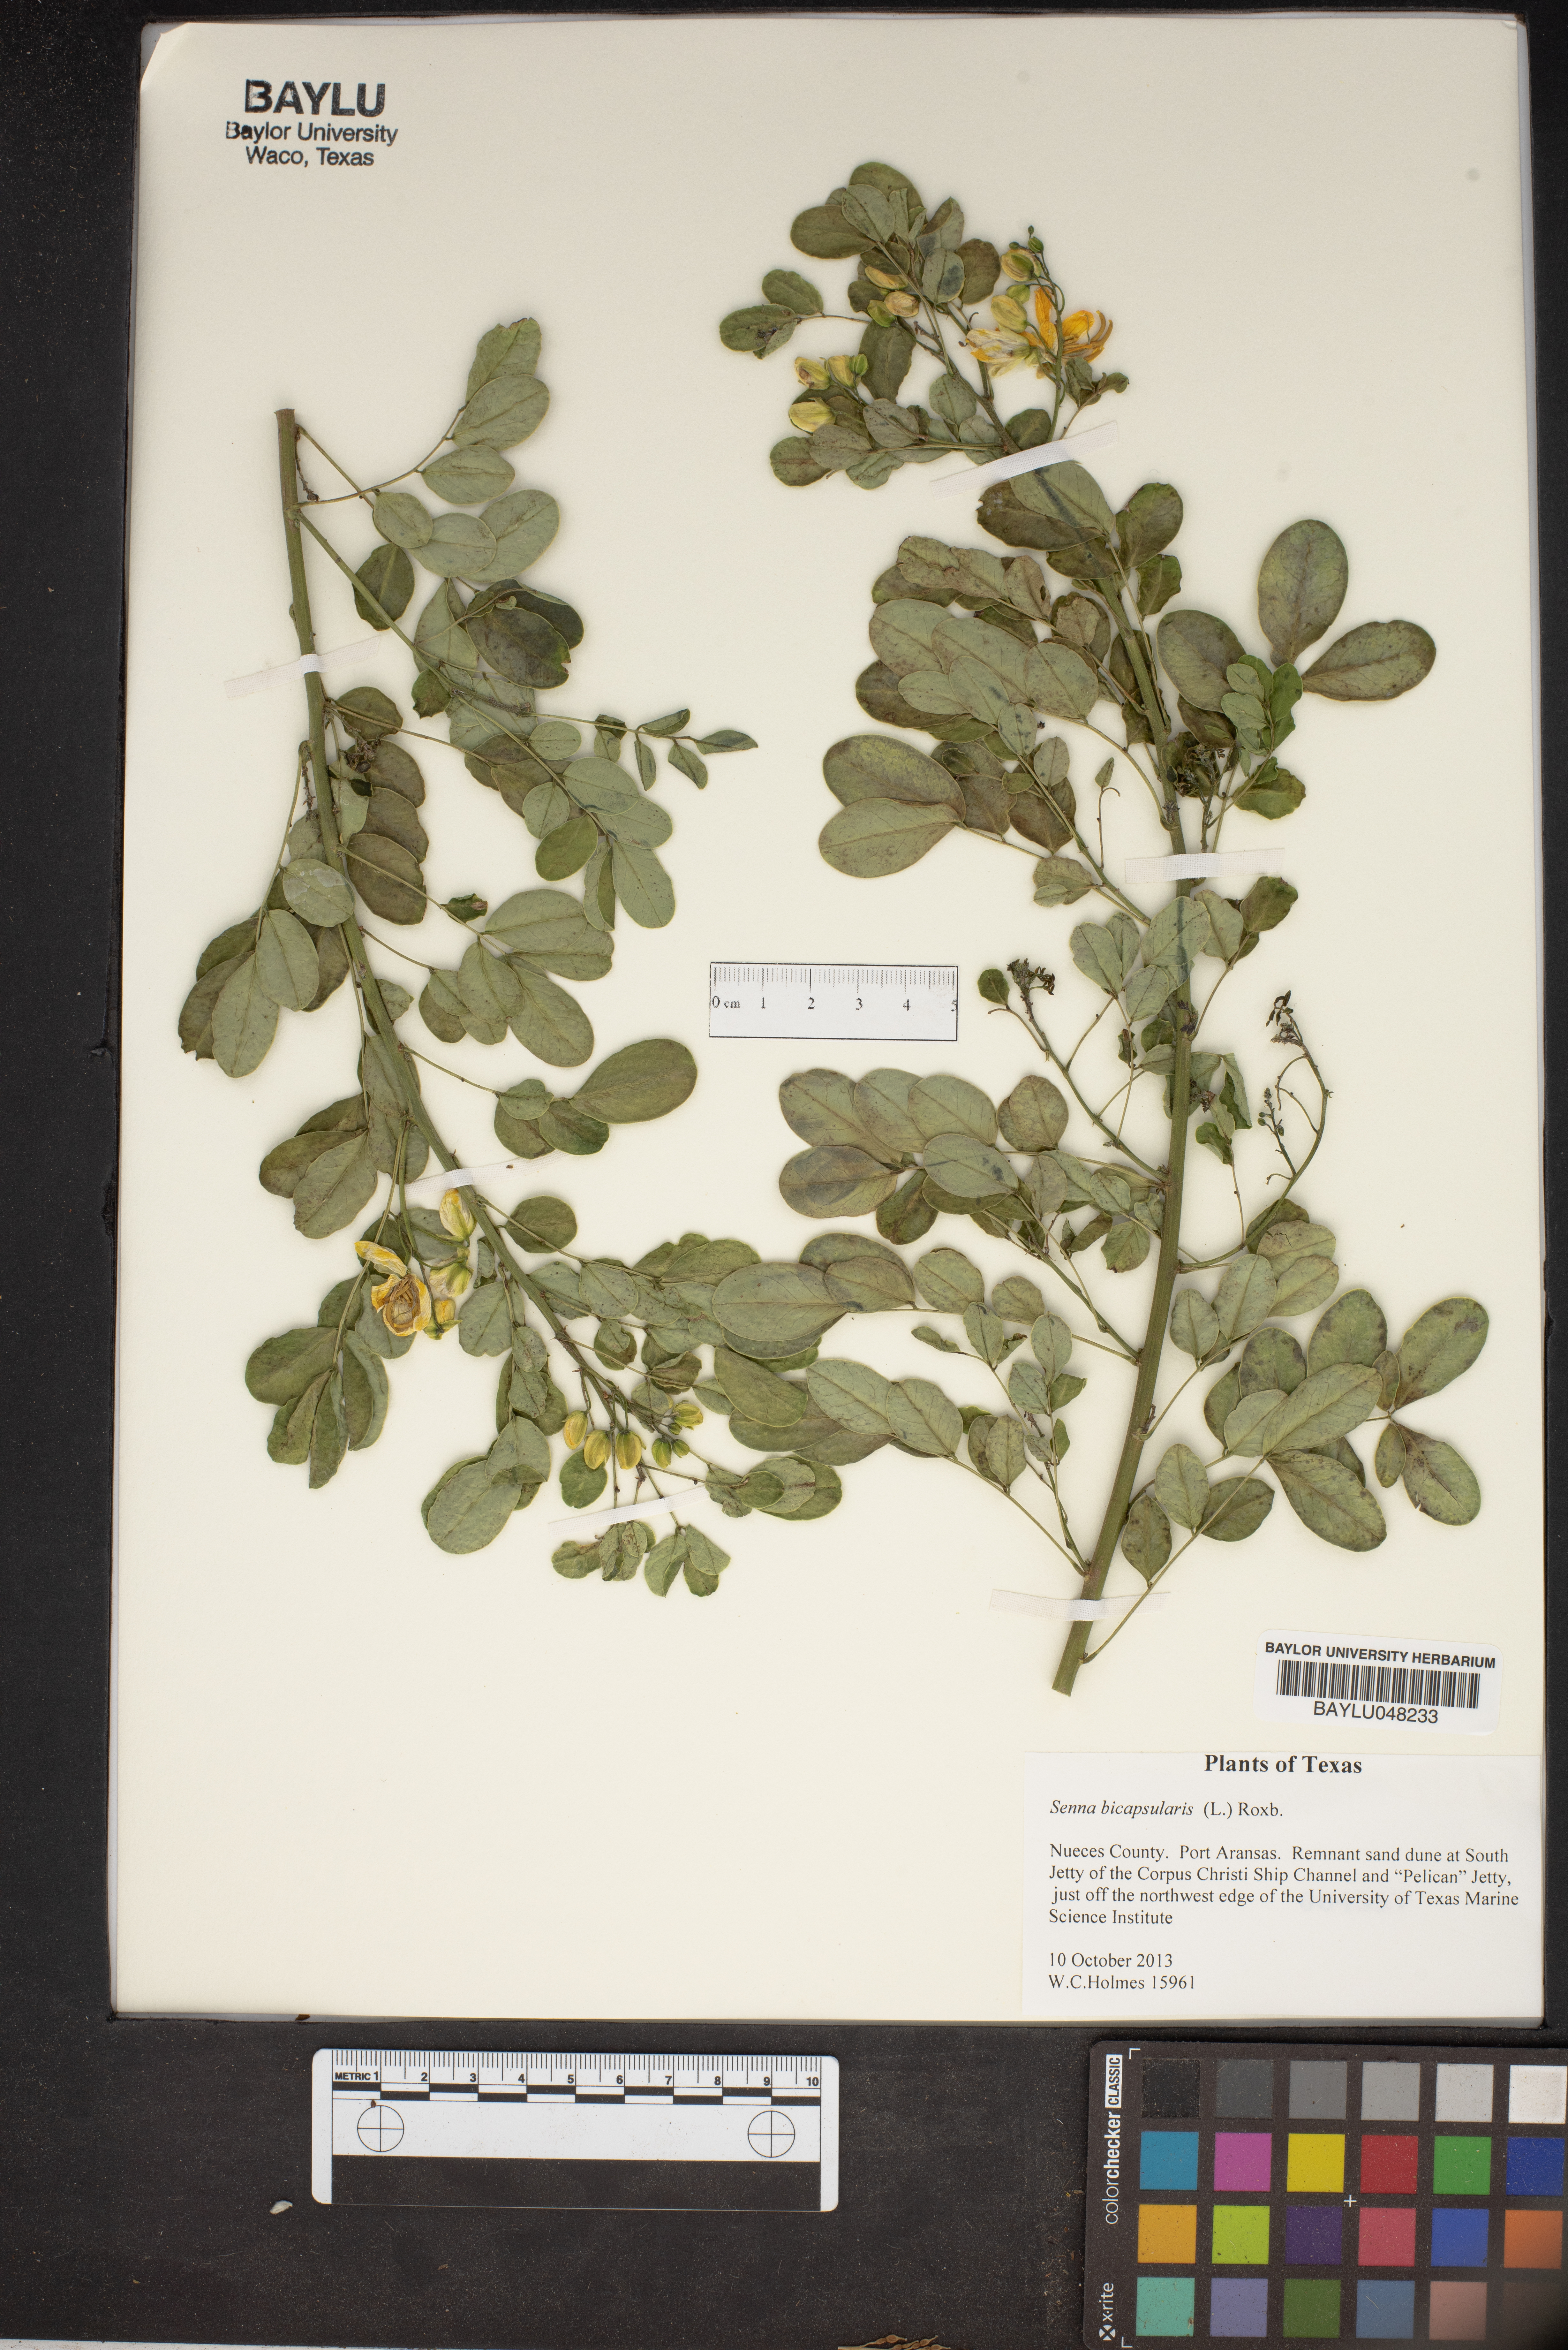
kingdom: Plantae
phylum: Tracheophyta
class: Magnoliopsida
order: Fabales
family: Fabaceae
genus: Senna
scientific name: Senna bicapsularis
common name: Christmasbush
